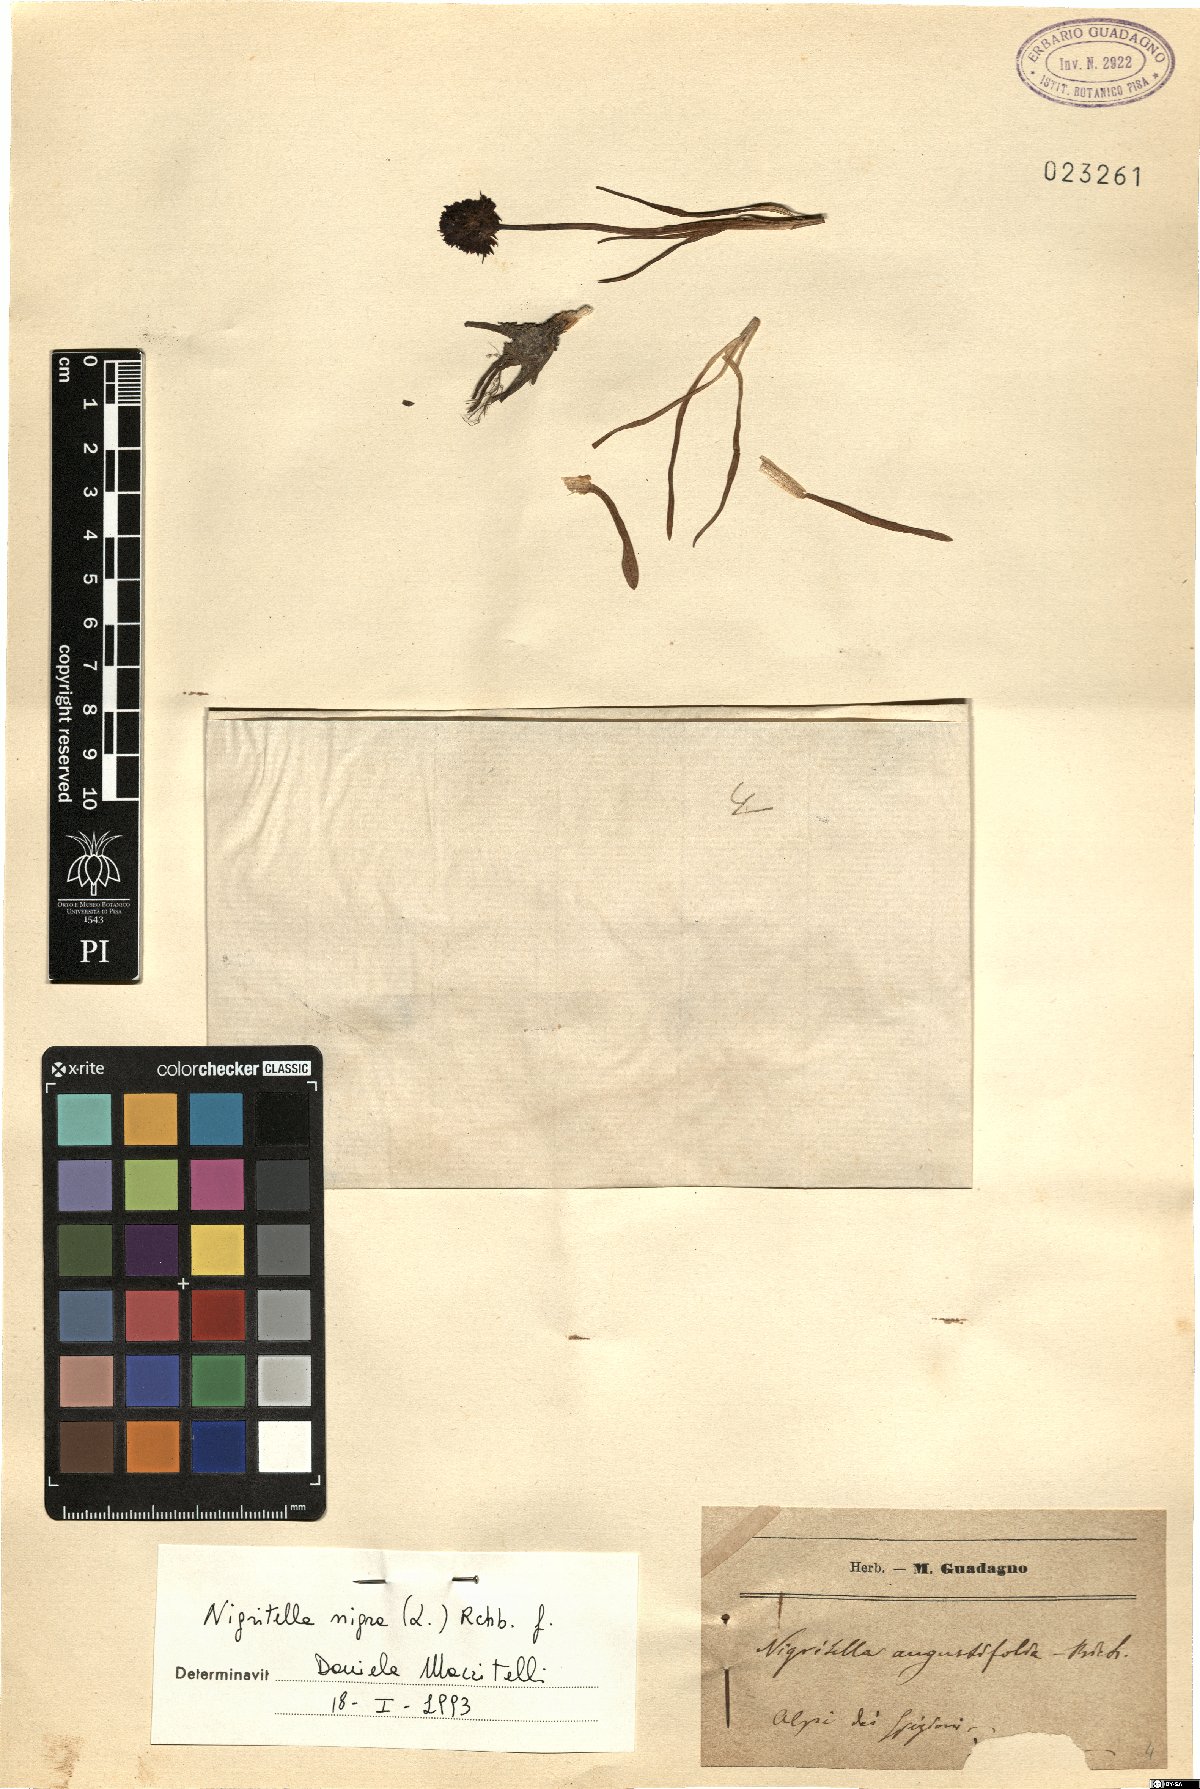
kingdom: Plantae
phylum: Tracheophyta
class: Liliopsida
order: Asparagales
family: Orchidaceae
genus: Gymnadenia
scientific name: Gymnadenia nigra
